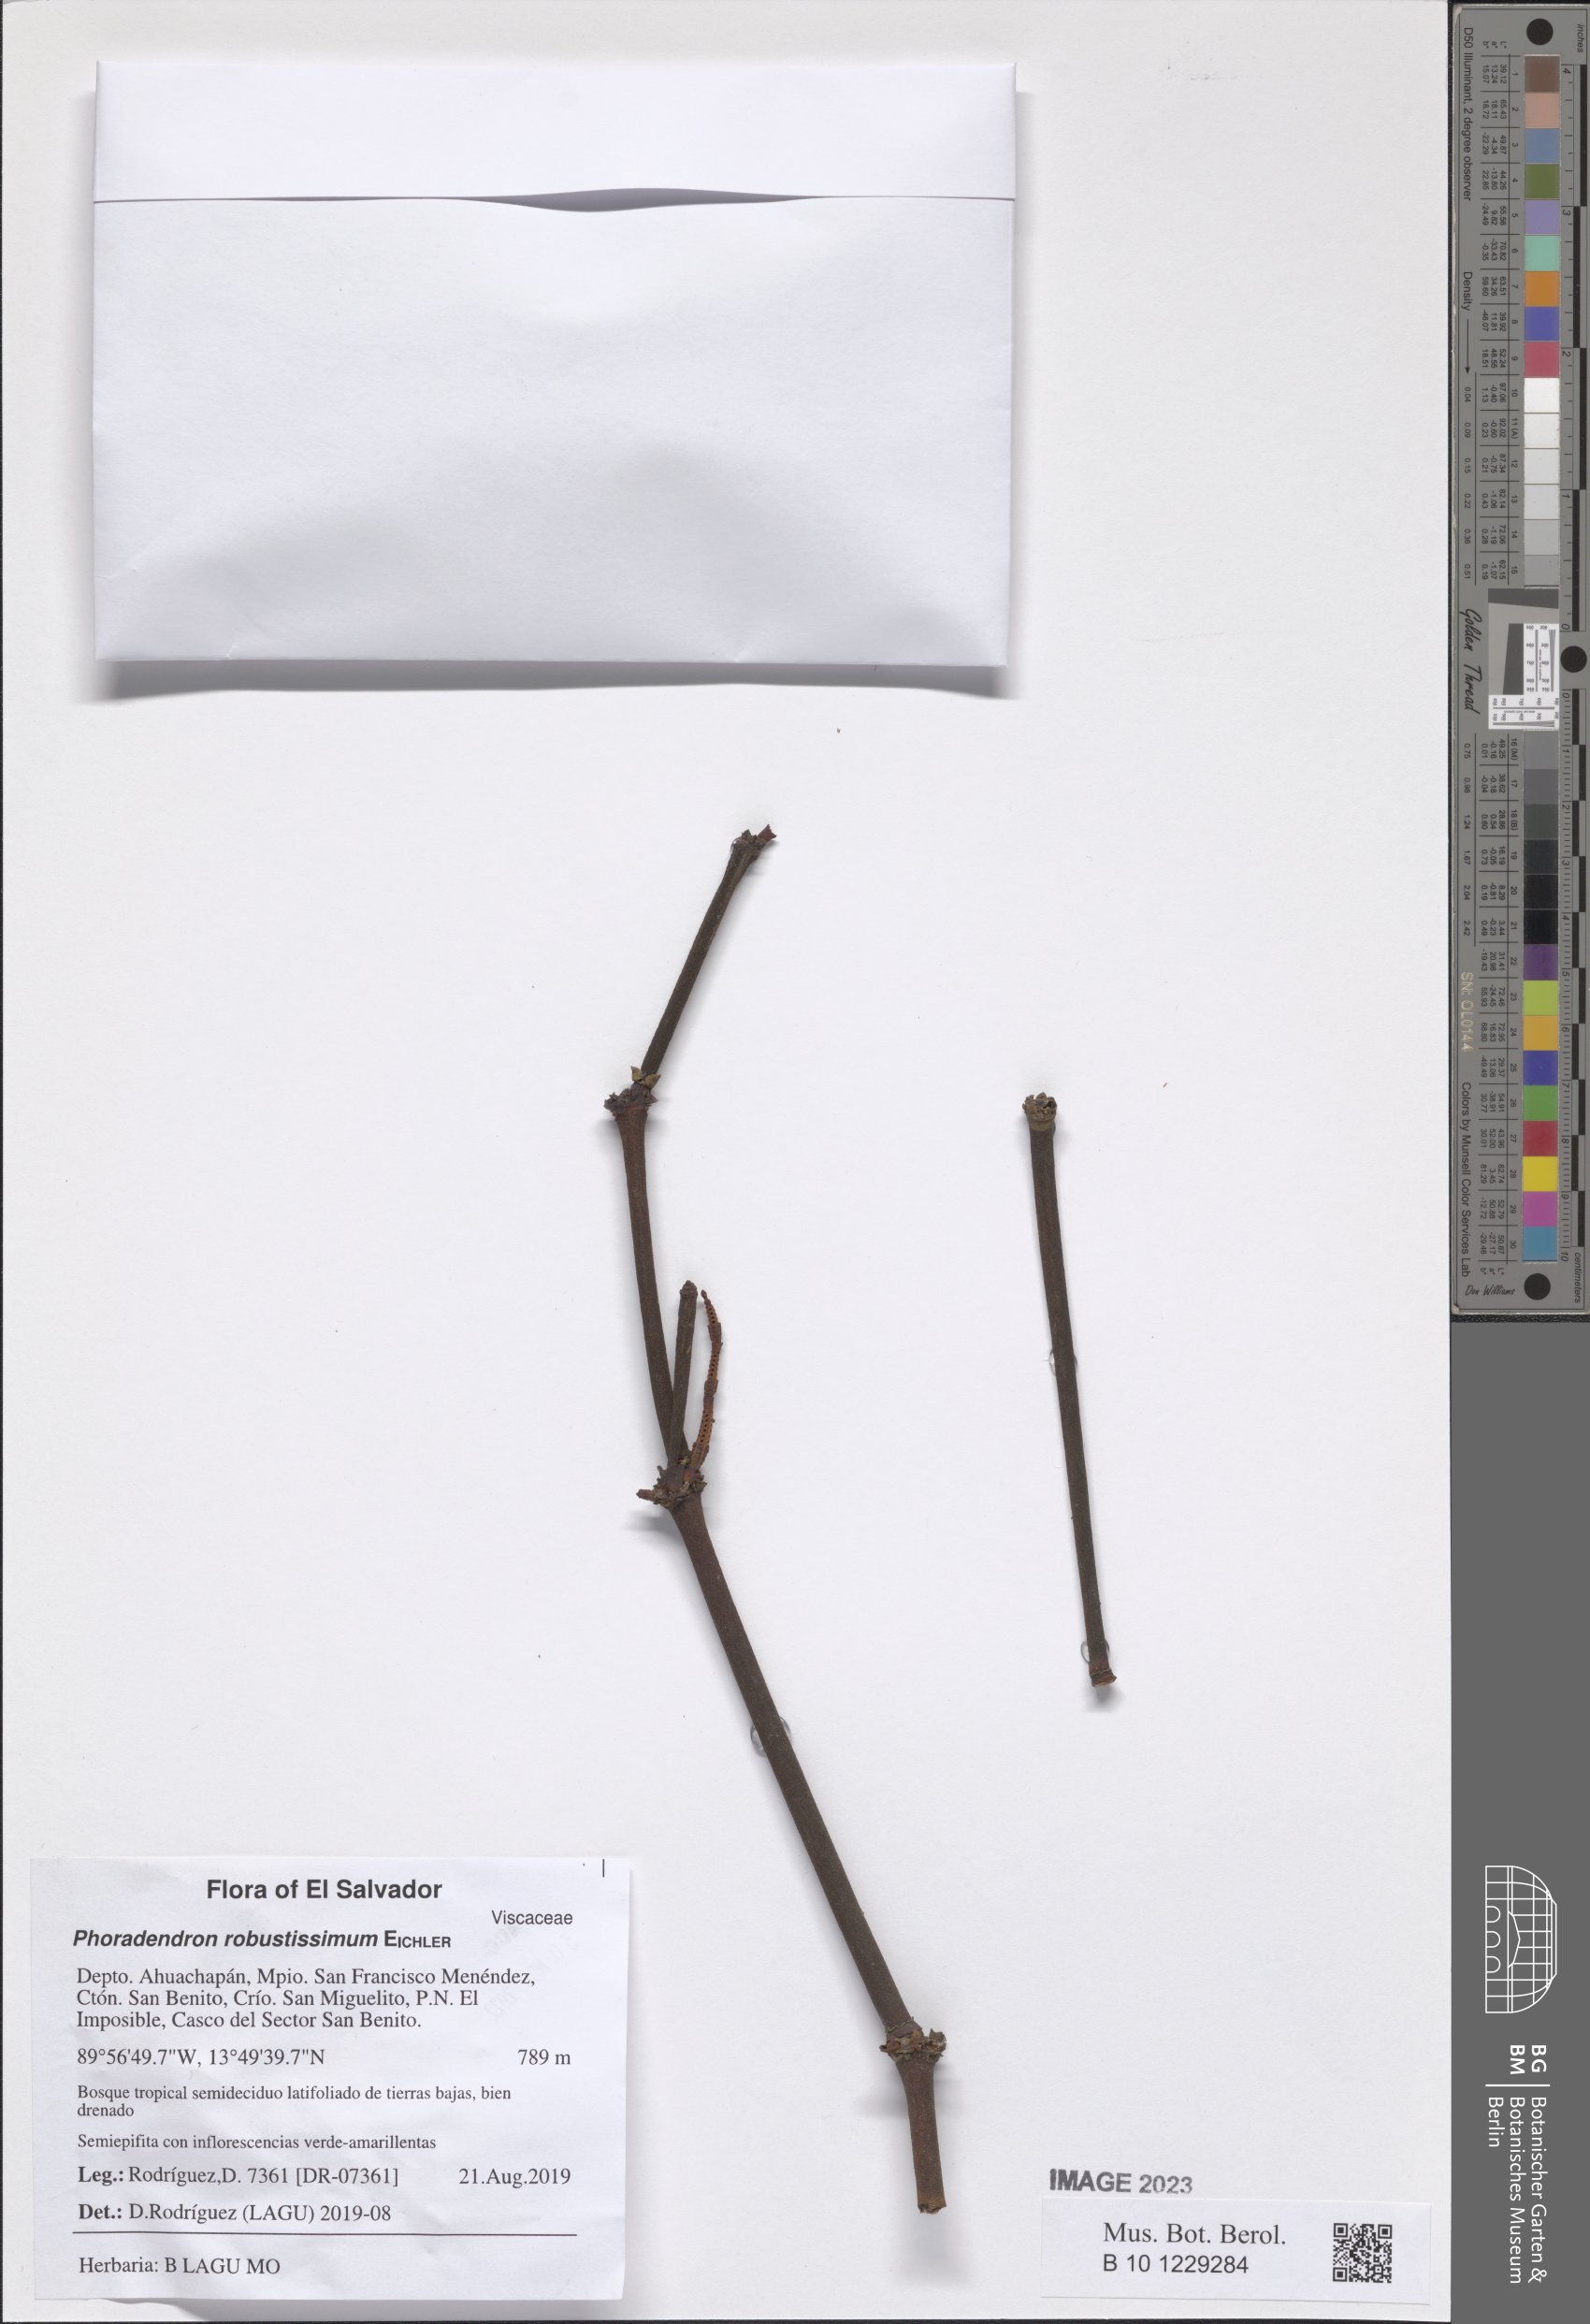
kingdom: Plantae
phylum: Tracheophyta
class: Magnoliopsida
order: Santalales
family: Viscaceae
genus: Phoradendron
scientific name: Phoradendron robustissimum
